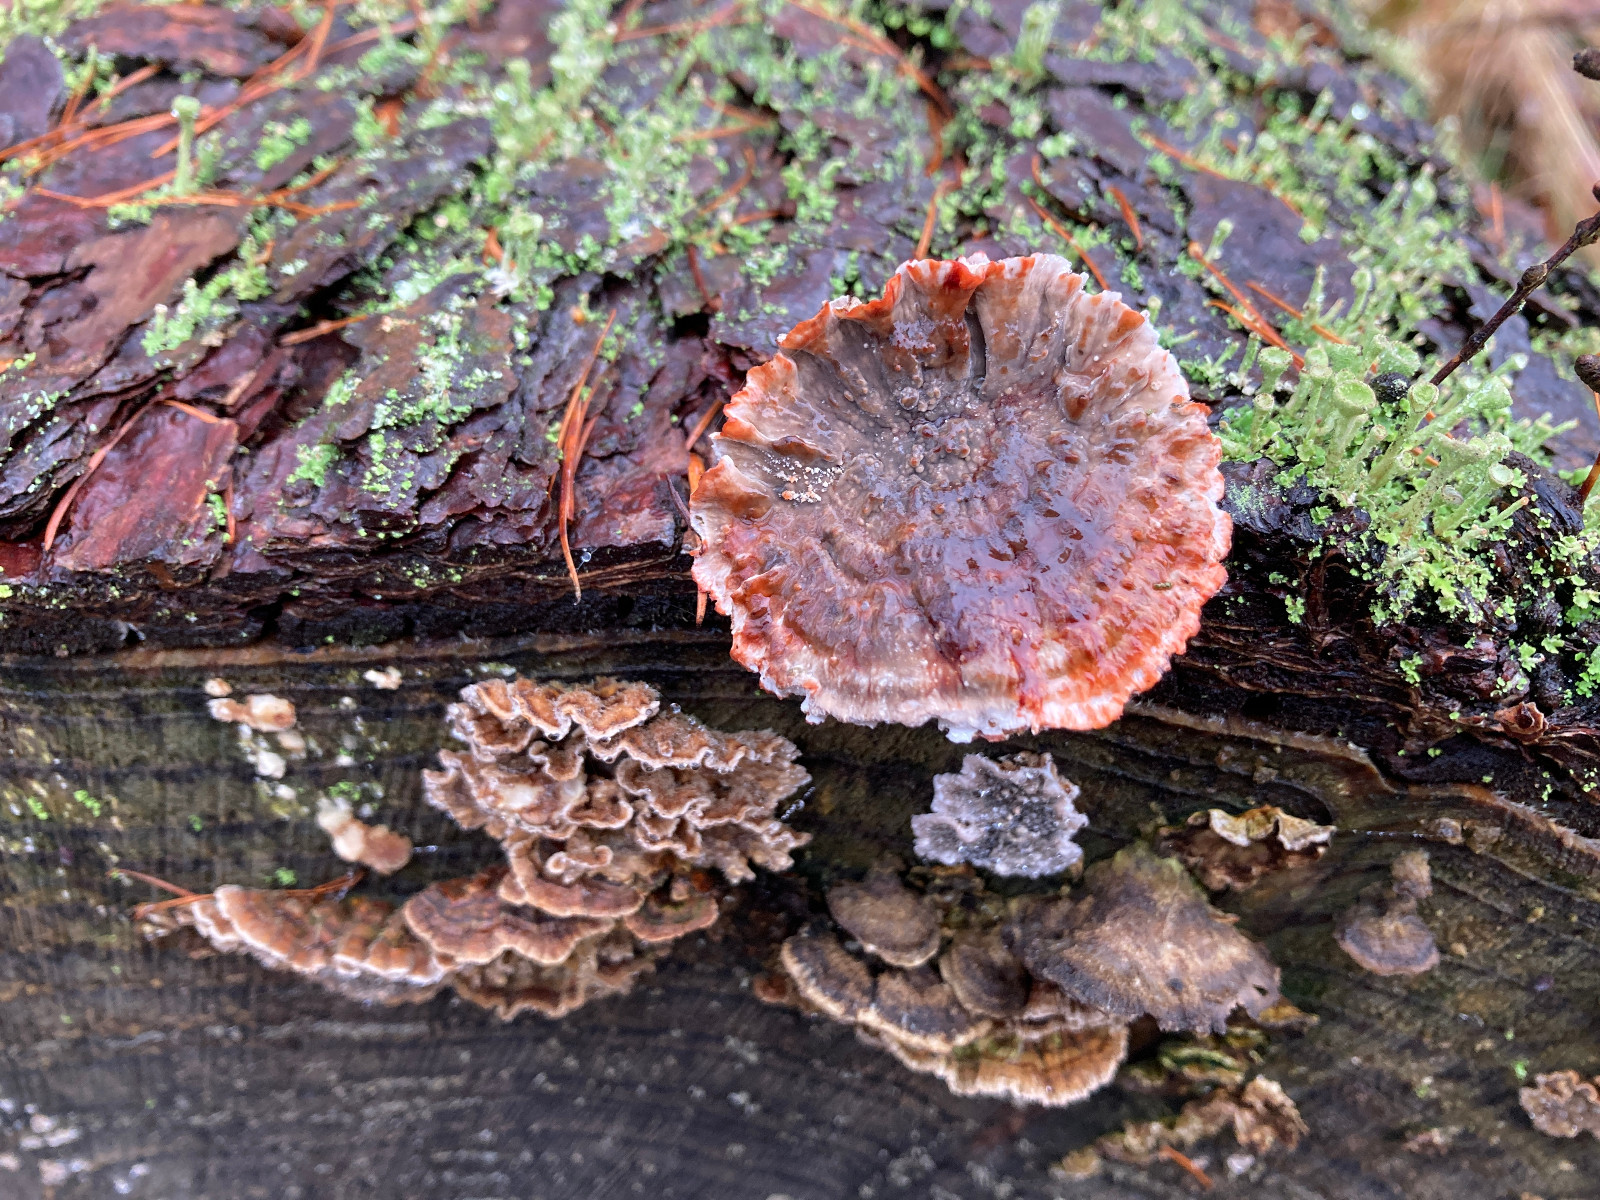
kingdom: Fungi
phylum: Basidiomycota
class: Agaricomycetes
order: Russulales
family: Stereaceae
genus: Stereum
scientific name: Stereum sanguinolentum
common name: blødende lædersvamp
